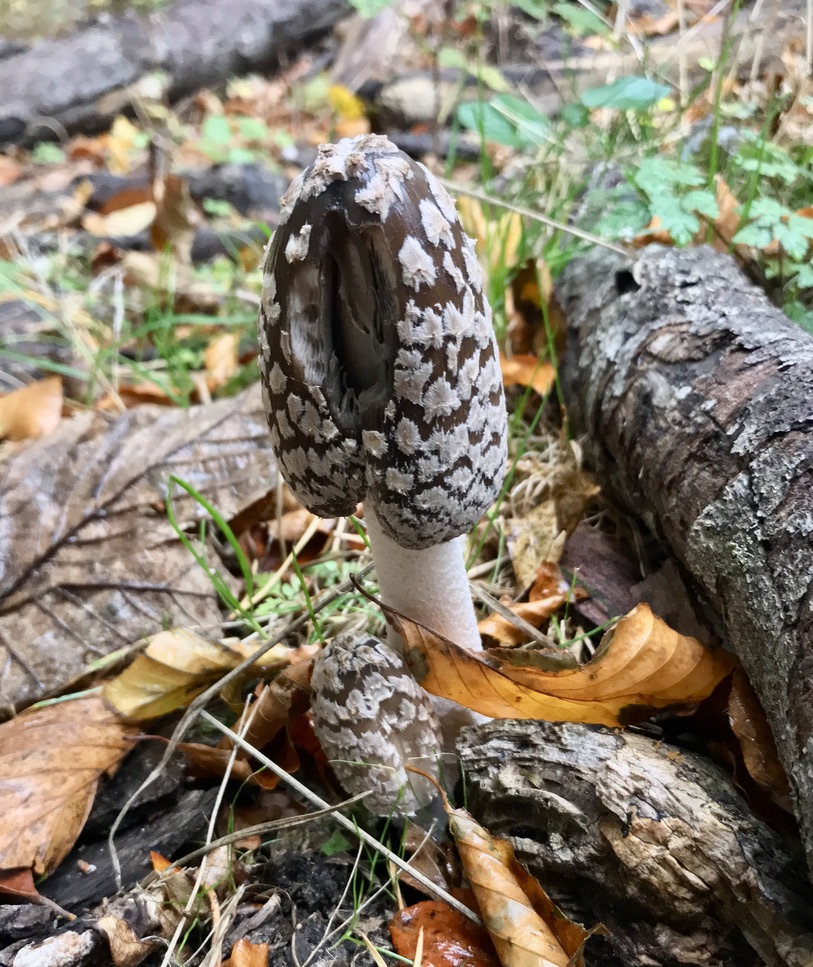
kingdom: Fungi
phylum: Basidiomycota
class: Agaricomycetes
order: Agaricales
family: Psathyrellaceae
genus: Coprinopsis
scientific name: Coprinopsis picacea
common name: skade-blækhat
